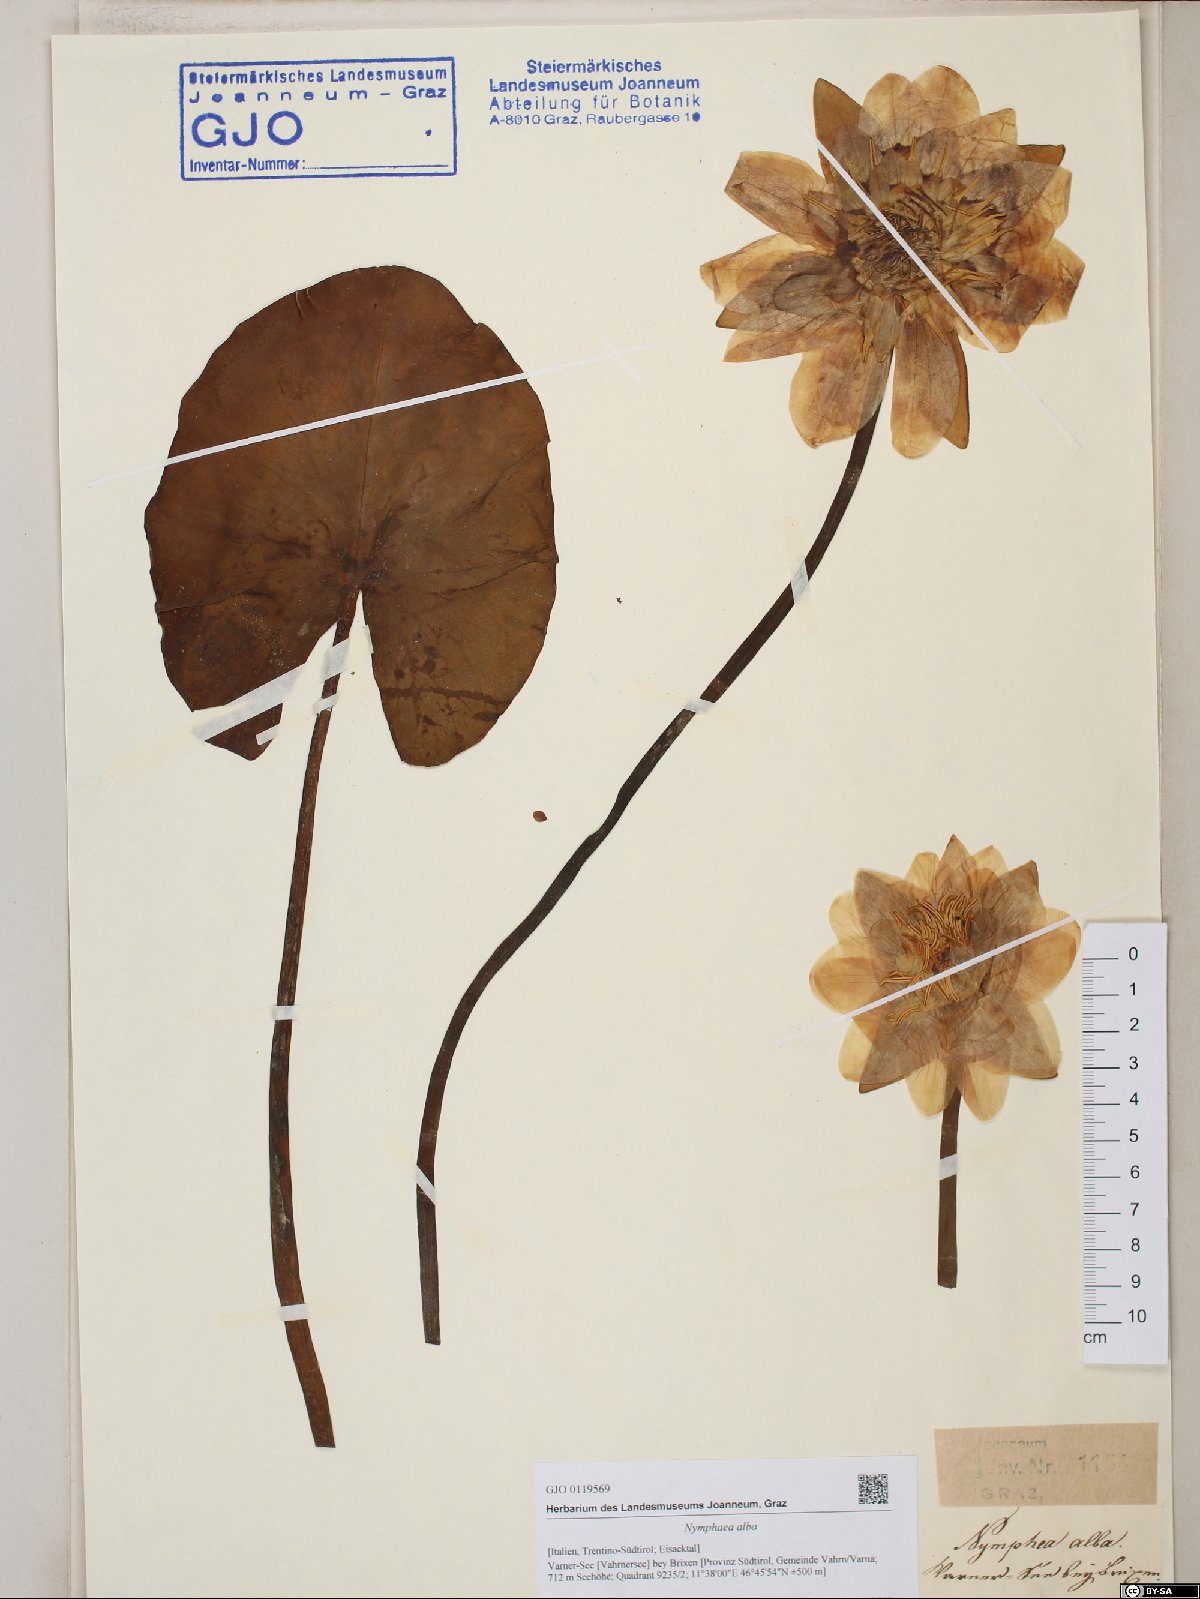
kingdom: Plantae
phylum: Tracheophyta
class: Magnoliopsida
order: Nymphaeales
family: Nymphaeaceae
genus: Nymphaea
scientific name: Nymphaea alba
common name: White water-lily
